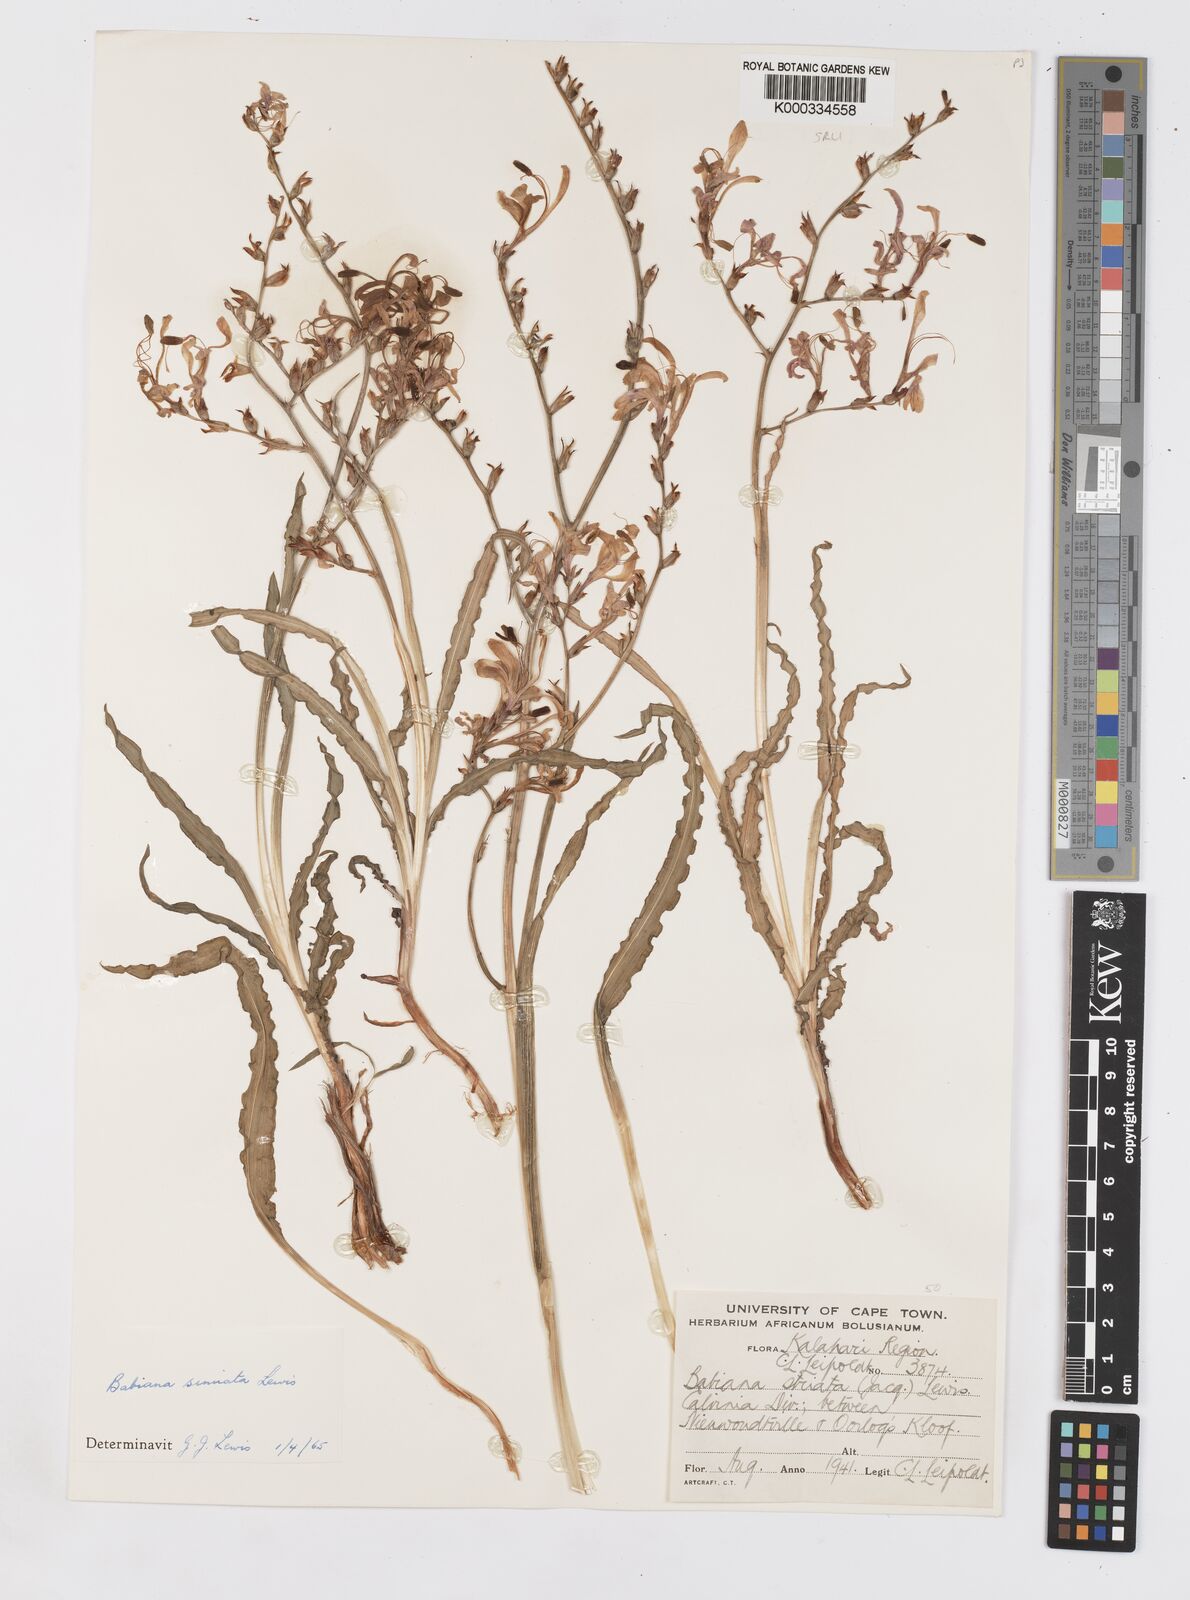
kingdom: Plantae
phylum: Tracheophyta
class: Liliopsida
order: Asparagales
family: Iridaceae
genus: Babiana
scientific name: Babiana
